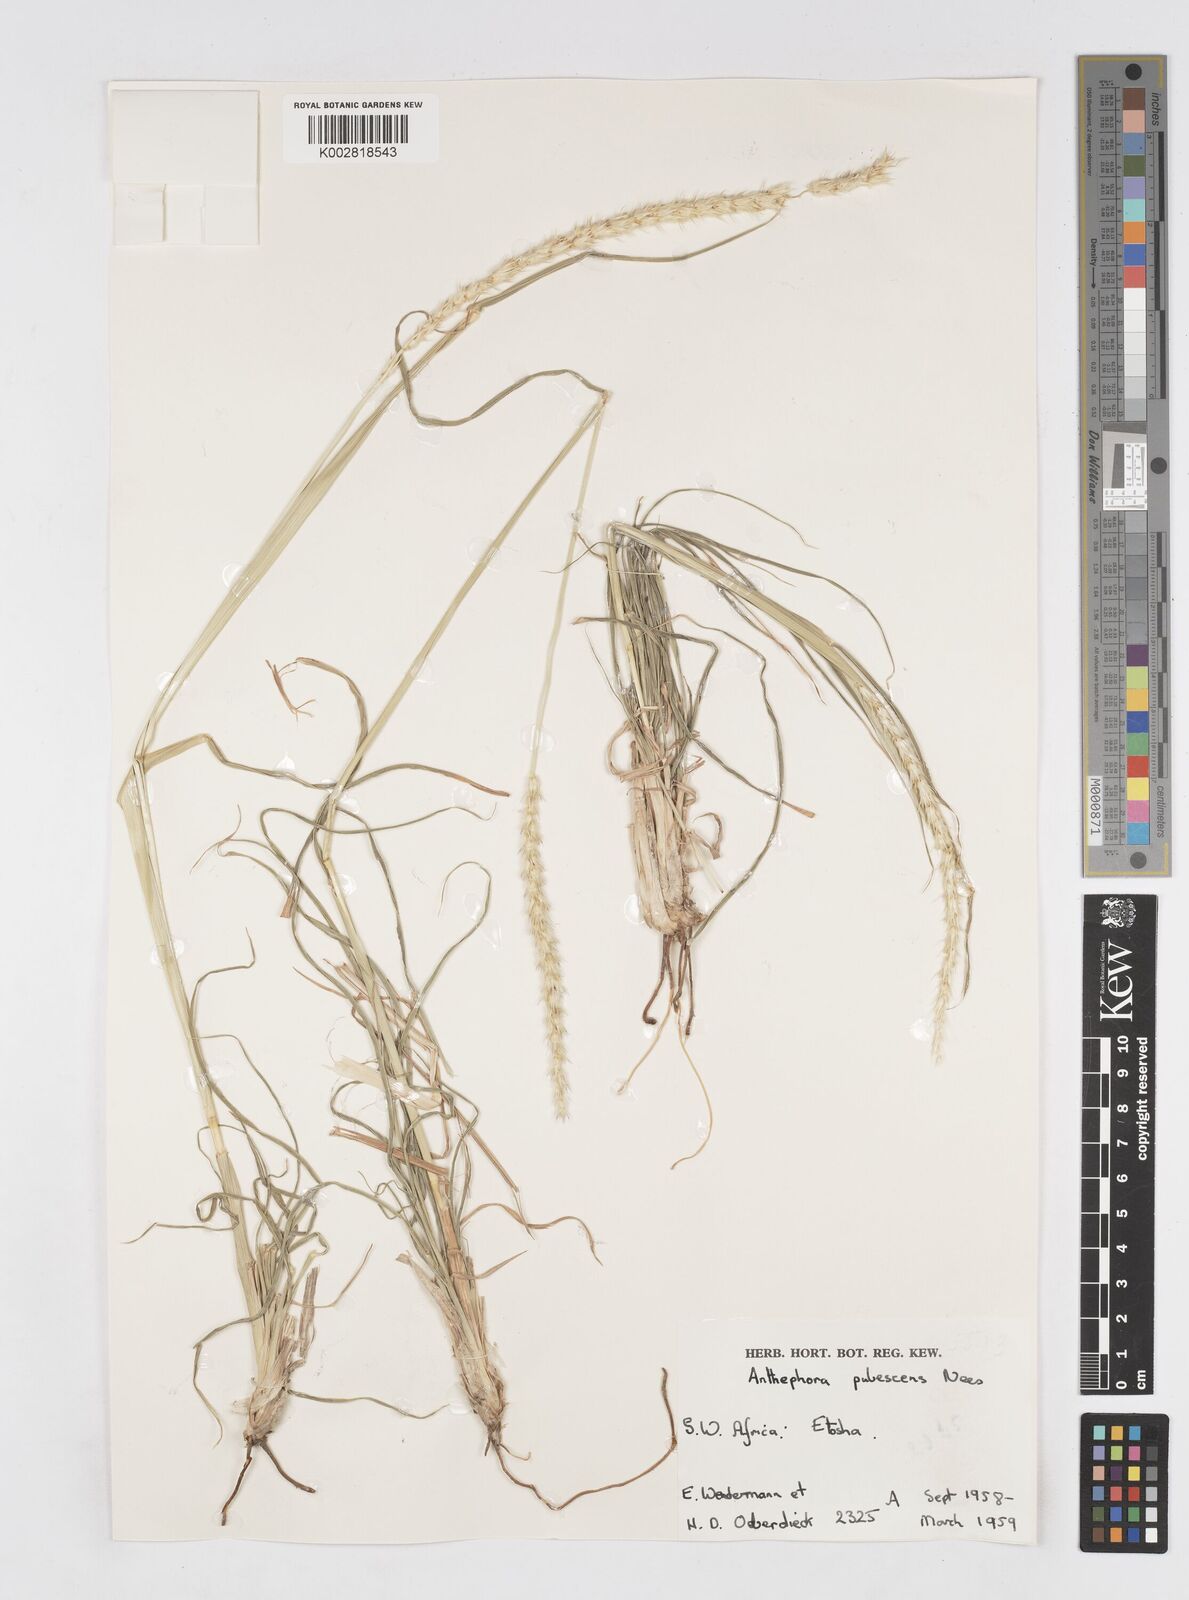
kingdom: Plantae
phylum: Tracheophyta
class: Liliopsida
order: Poales
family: Poaceae
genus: Anthephora
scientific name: Anthephora pubescens
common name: Wool grass
